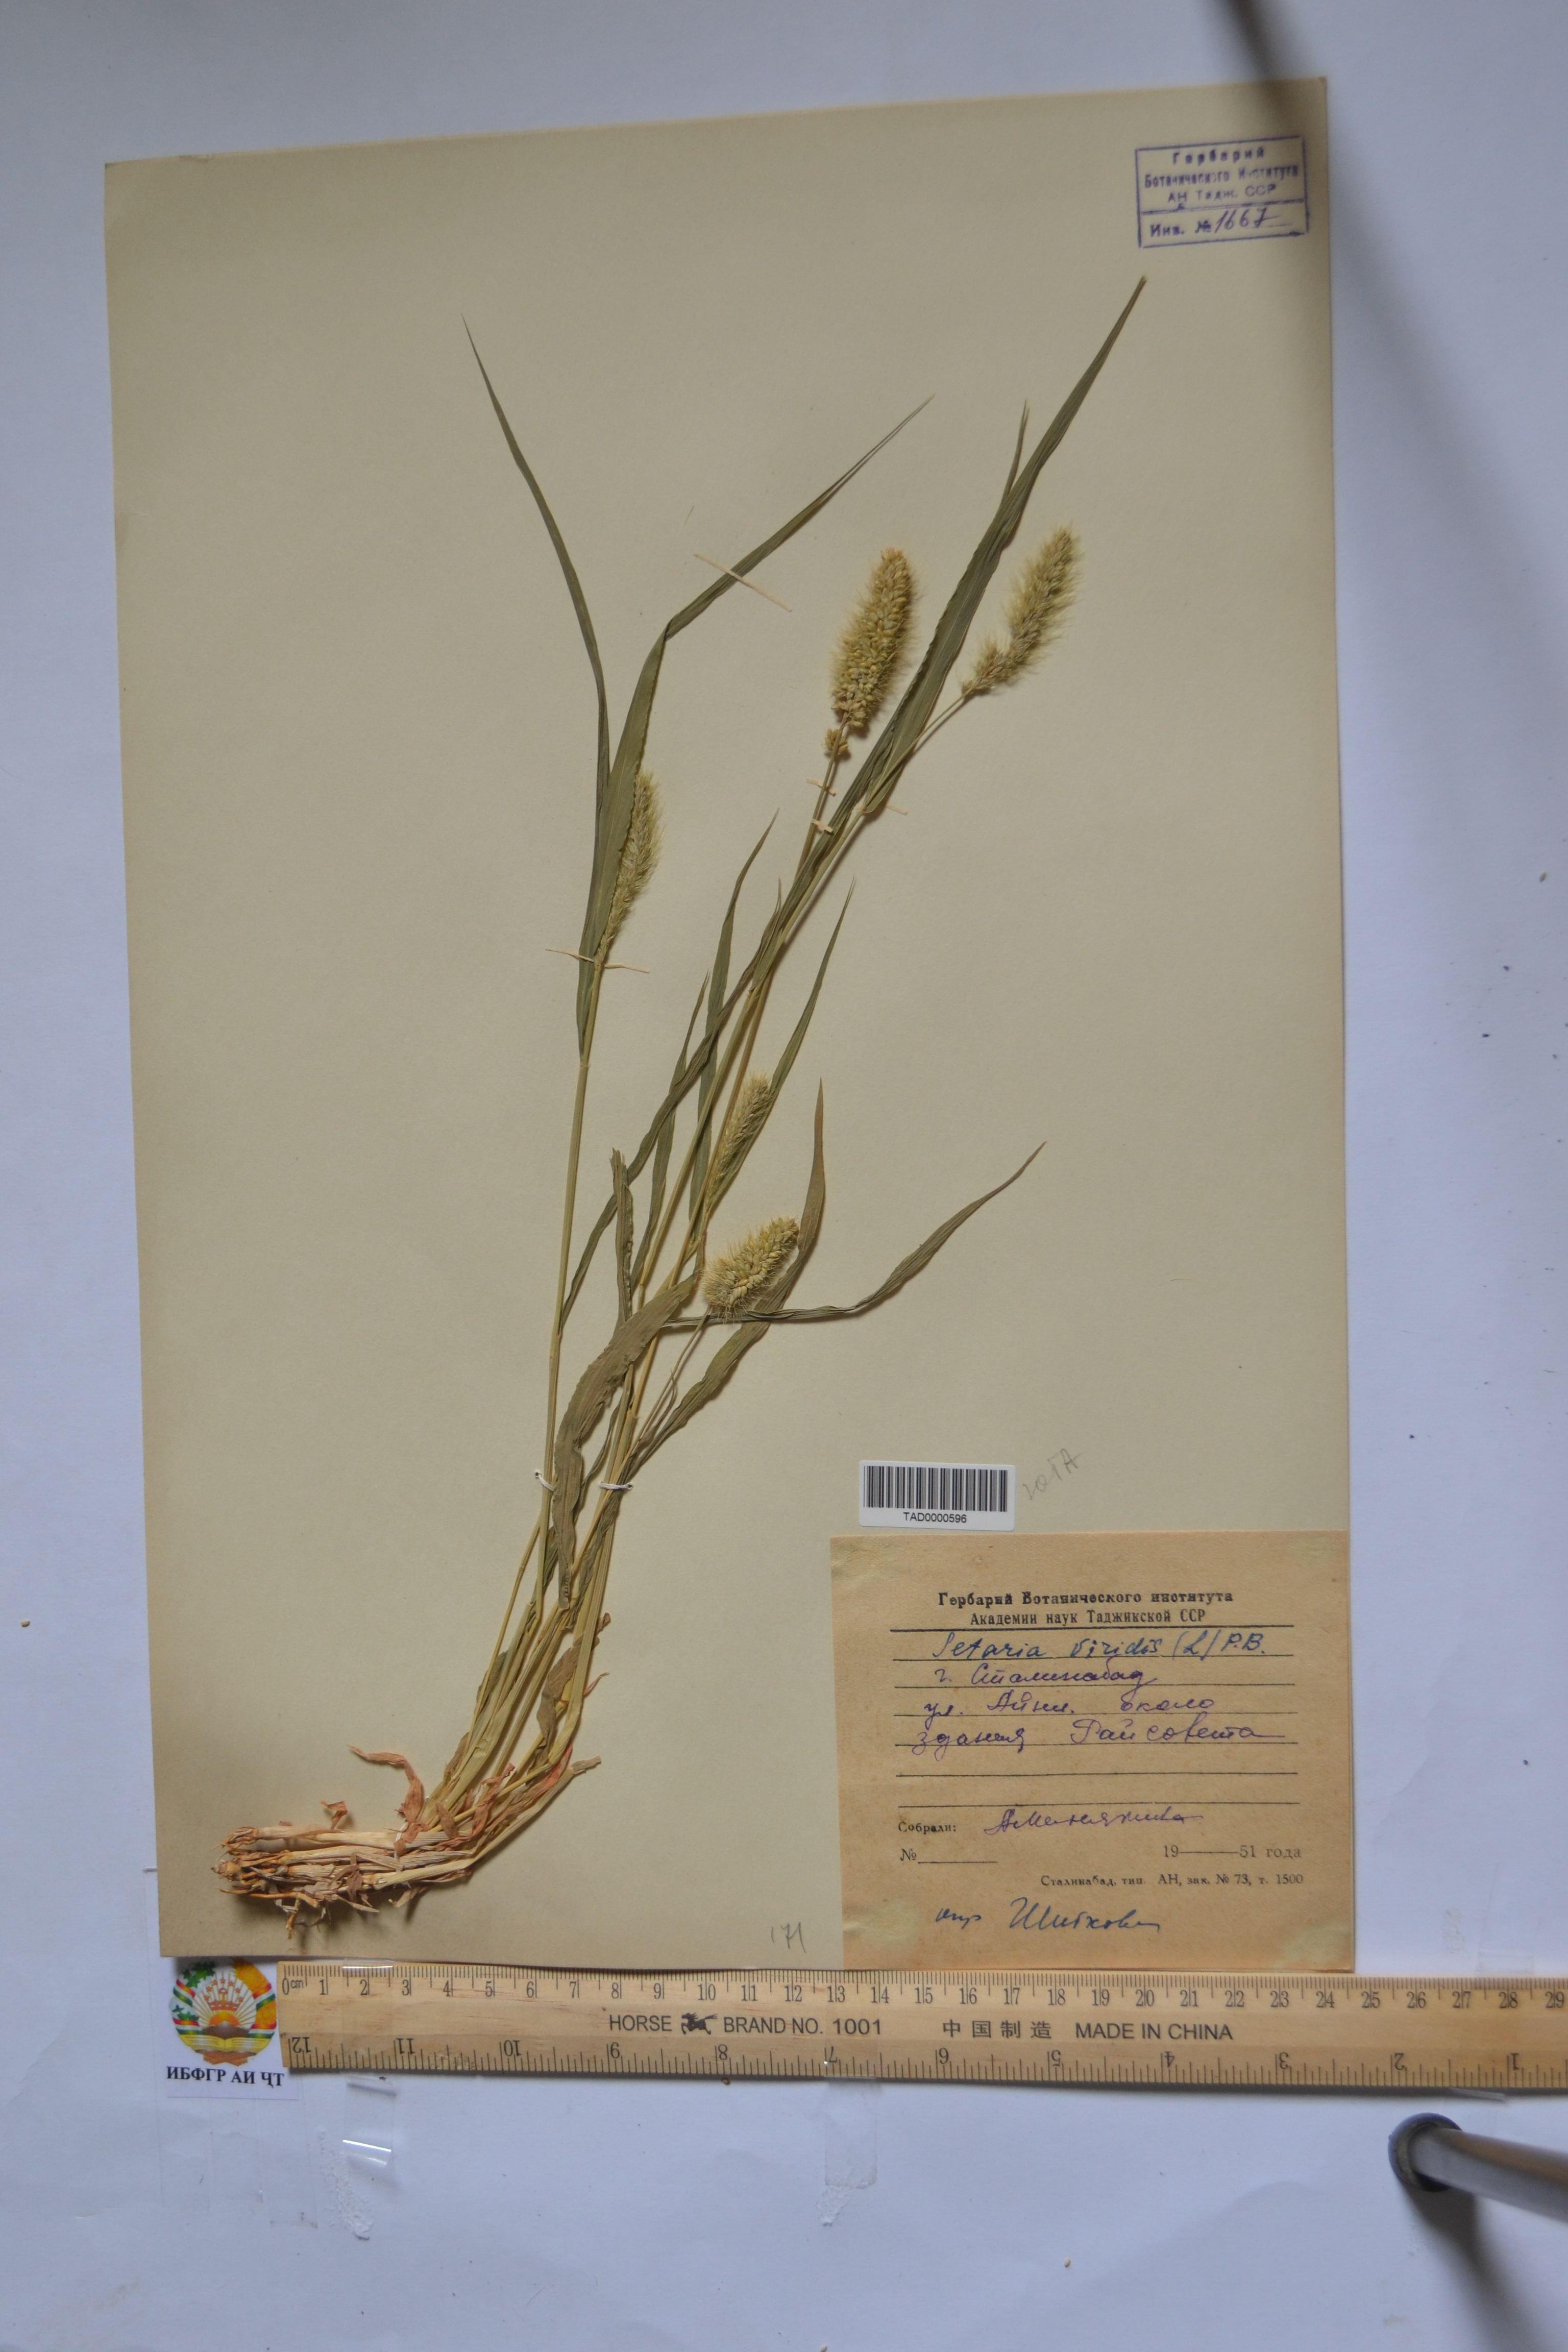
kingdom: Plantae
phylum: Tracheophyta
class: Liliopsida
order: Poales
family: Poaceae
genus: Setaria
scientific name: Setaria viridis
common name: Green bristlegrass
